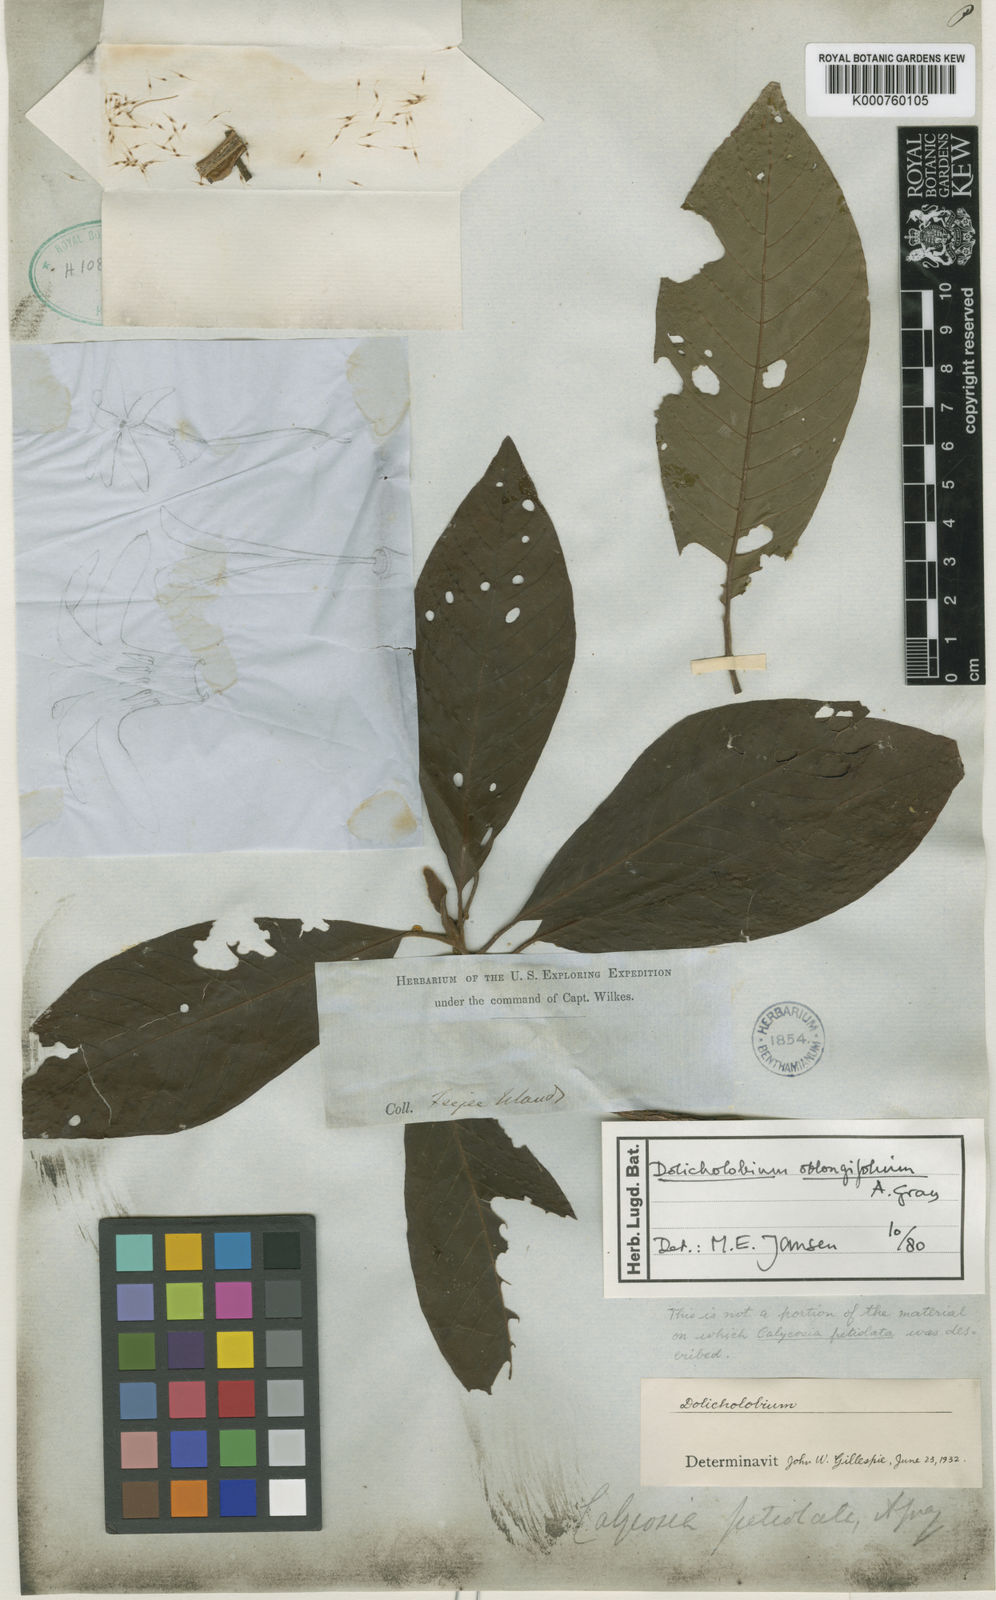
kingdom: Plantae
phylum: Tracheophyta
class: Magnoliopsida
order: Gentianales
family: Rubiaceae
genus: Dolicholobium
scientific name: Dolicholobium oblongifolium
